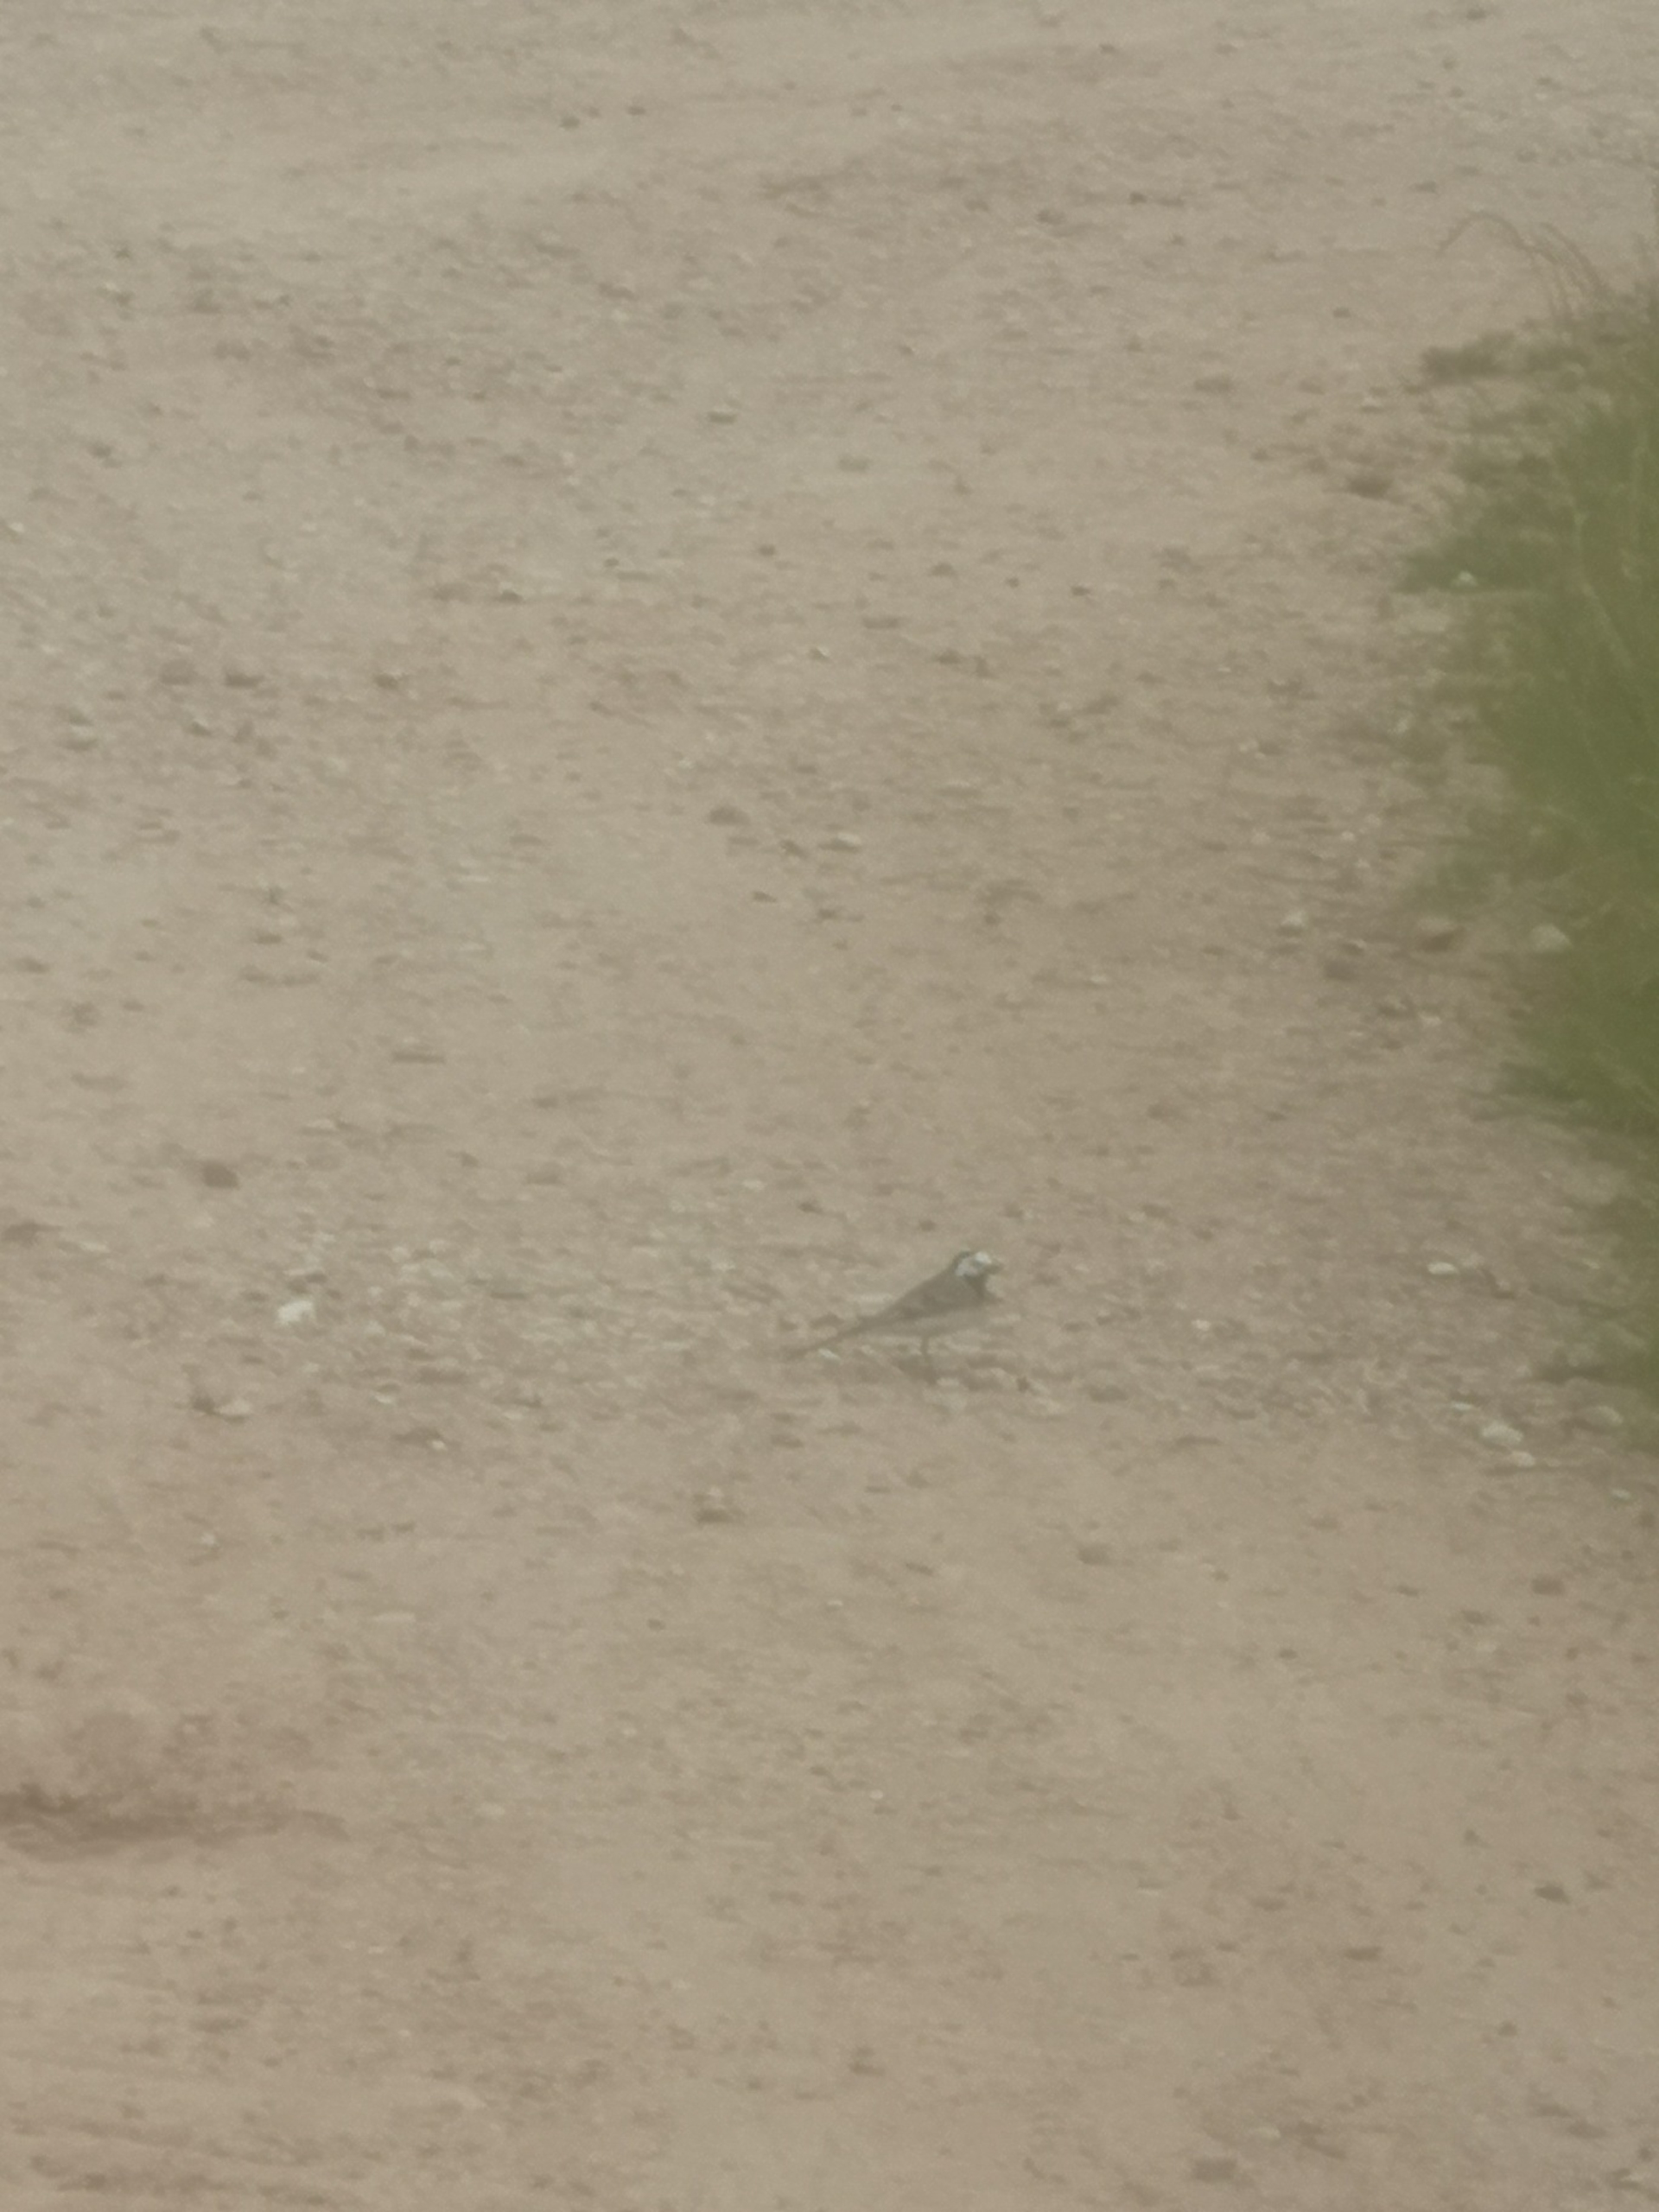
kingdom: Animalia
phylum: Chordata
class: Aves
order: Passeriformes
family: Motacillidae
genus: Motacilla
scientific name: Motacilla alba
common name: Hvid vipstjert
